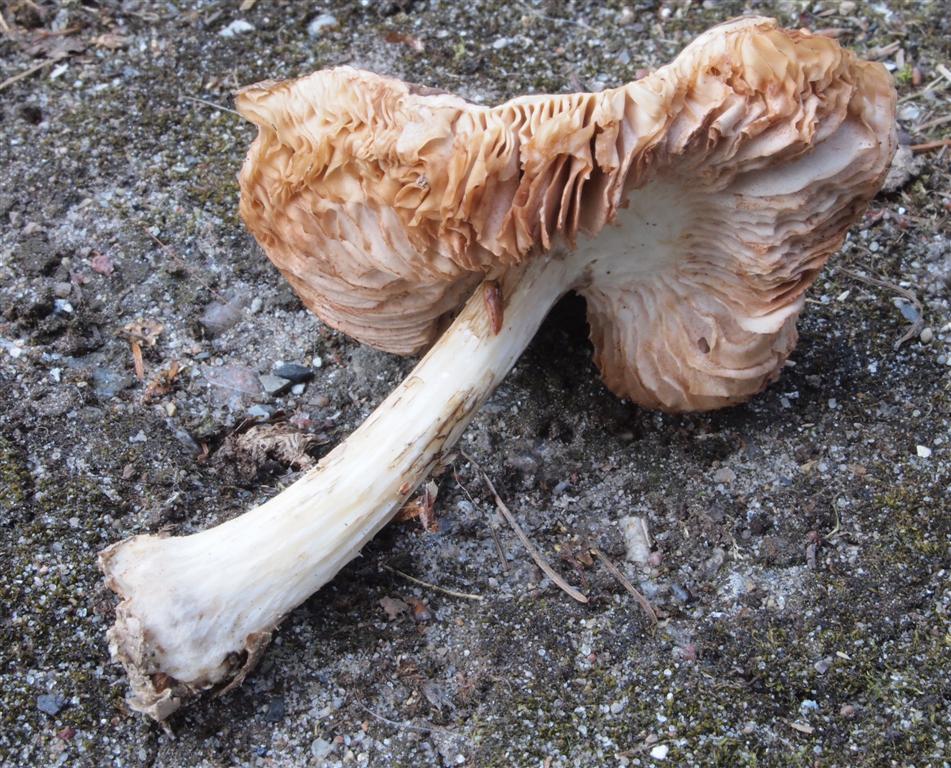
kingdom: Fungi
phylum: Basidiomycota
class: Agaricomycetes
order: Agaricales
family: Pluteaceae
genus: Pluteus
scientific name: Pluteus cervinus
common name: sodfarvet skærmhat
